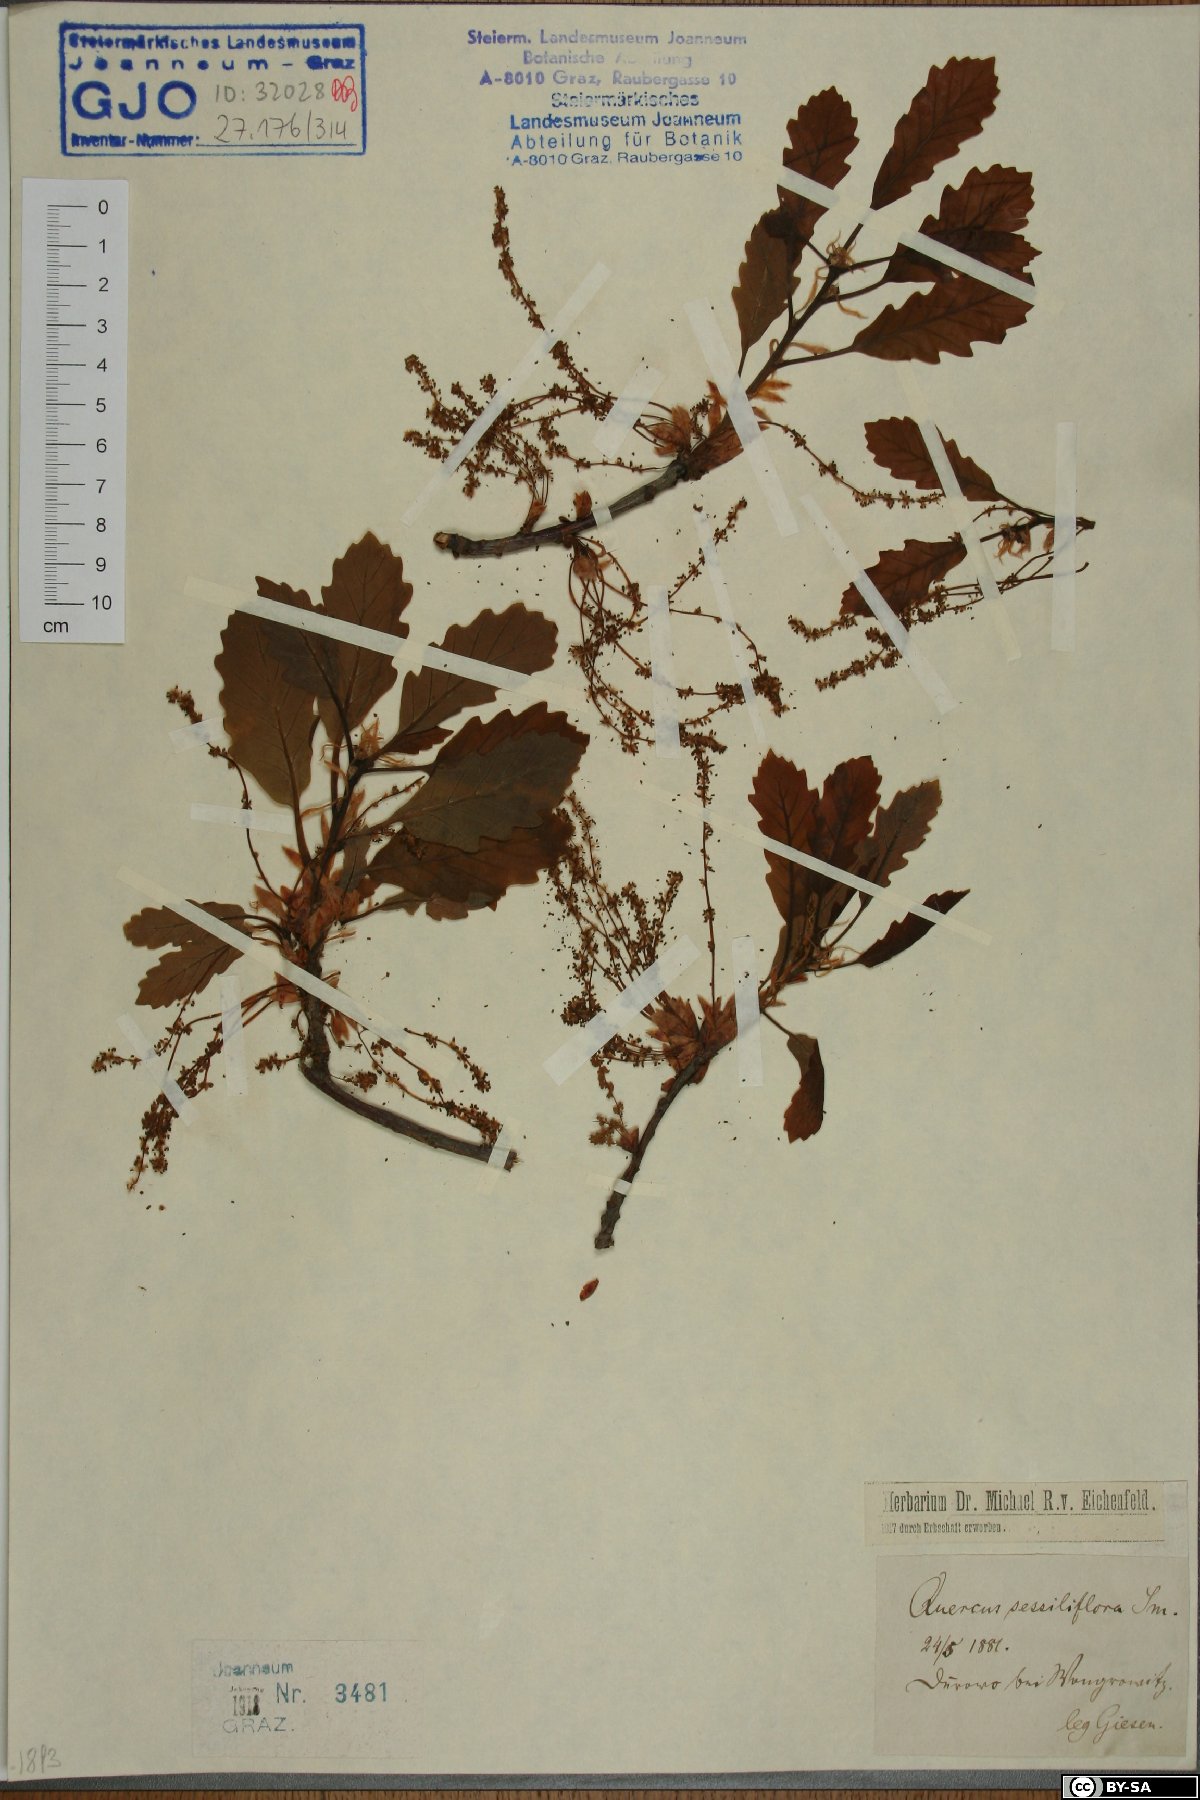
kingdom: Plantae
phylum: Tracheophyta
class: Magnoliopsida
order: Fagales
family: Fagaceae
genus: Quercus
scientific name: Quercus petraea
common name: Sessile oak
